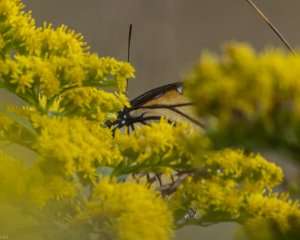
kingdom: Animalia
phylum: Arthropoda
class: Insecta
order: Lepidoptera
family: Nymphalidae
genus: Limenitis
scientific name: Limenitis archippus
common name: Viceroy
